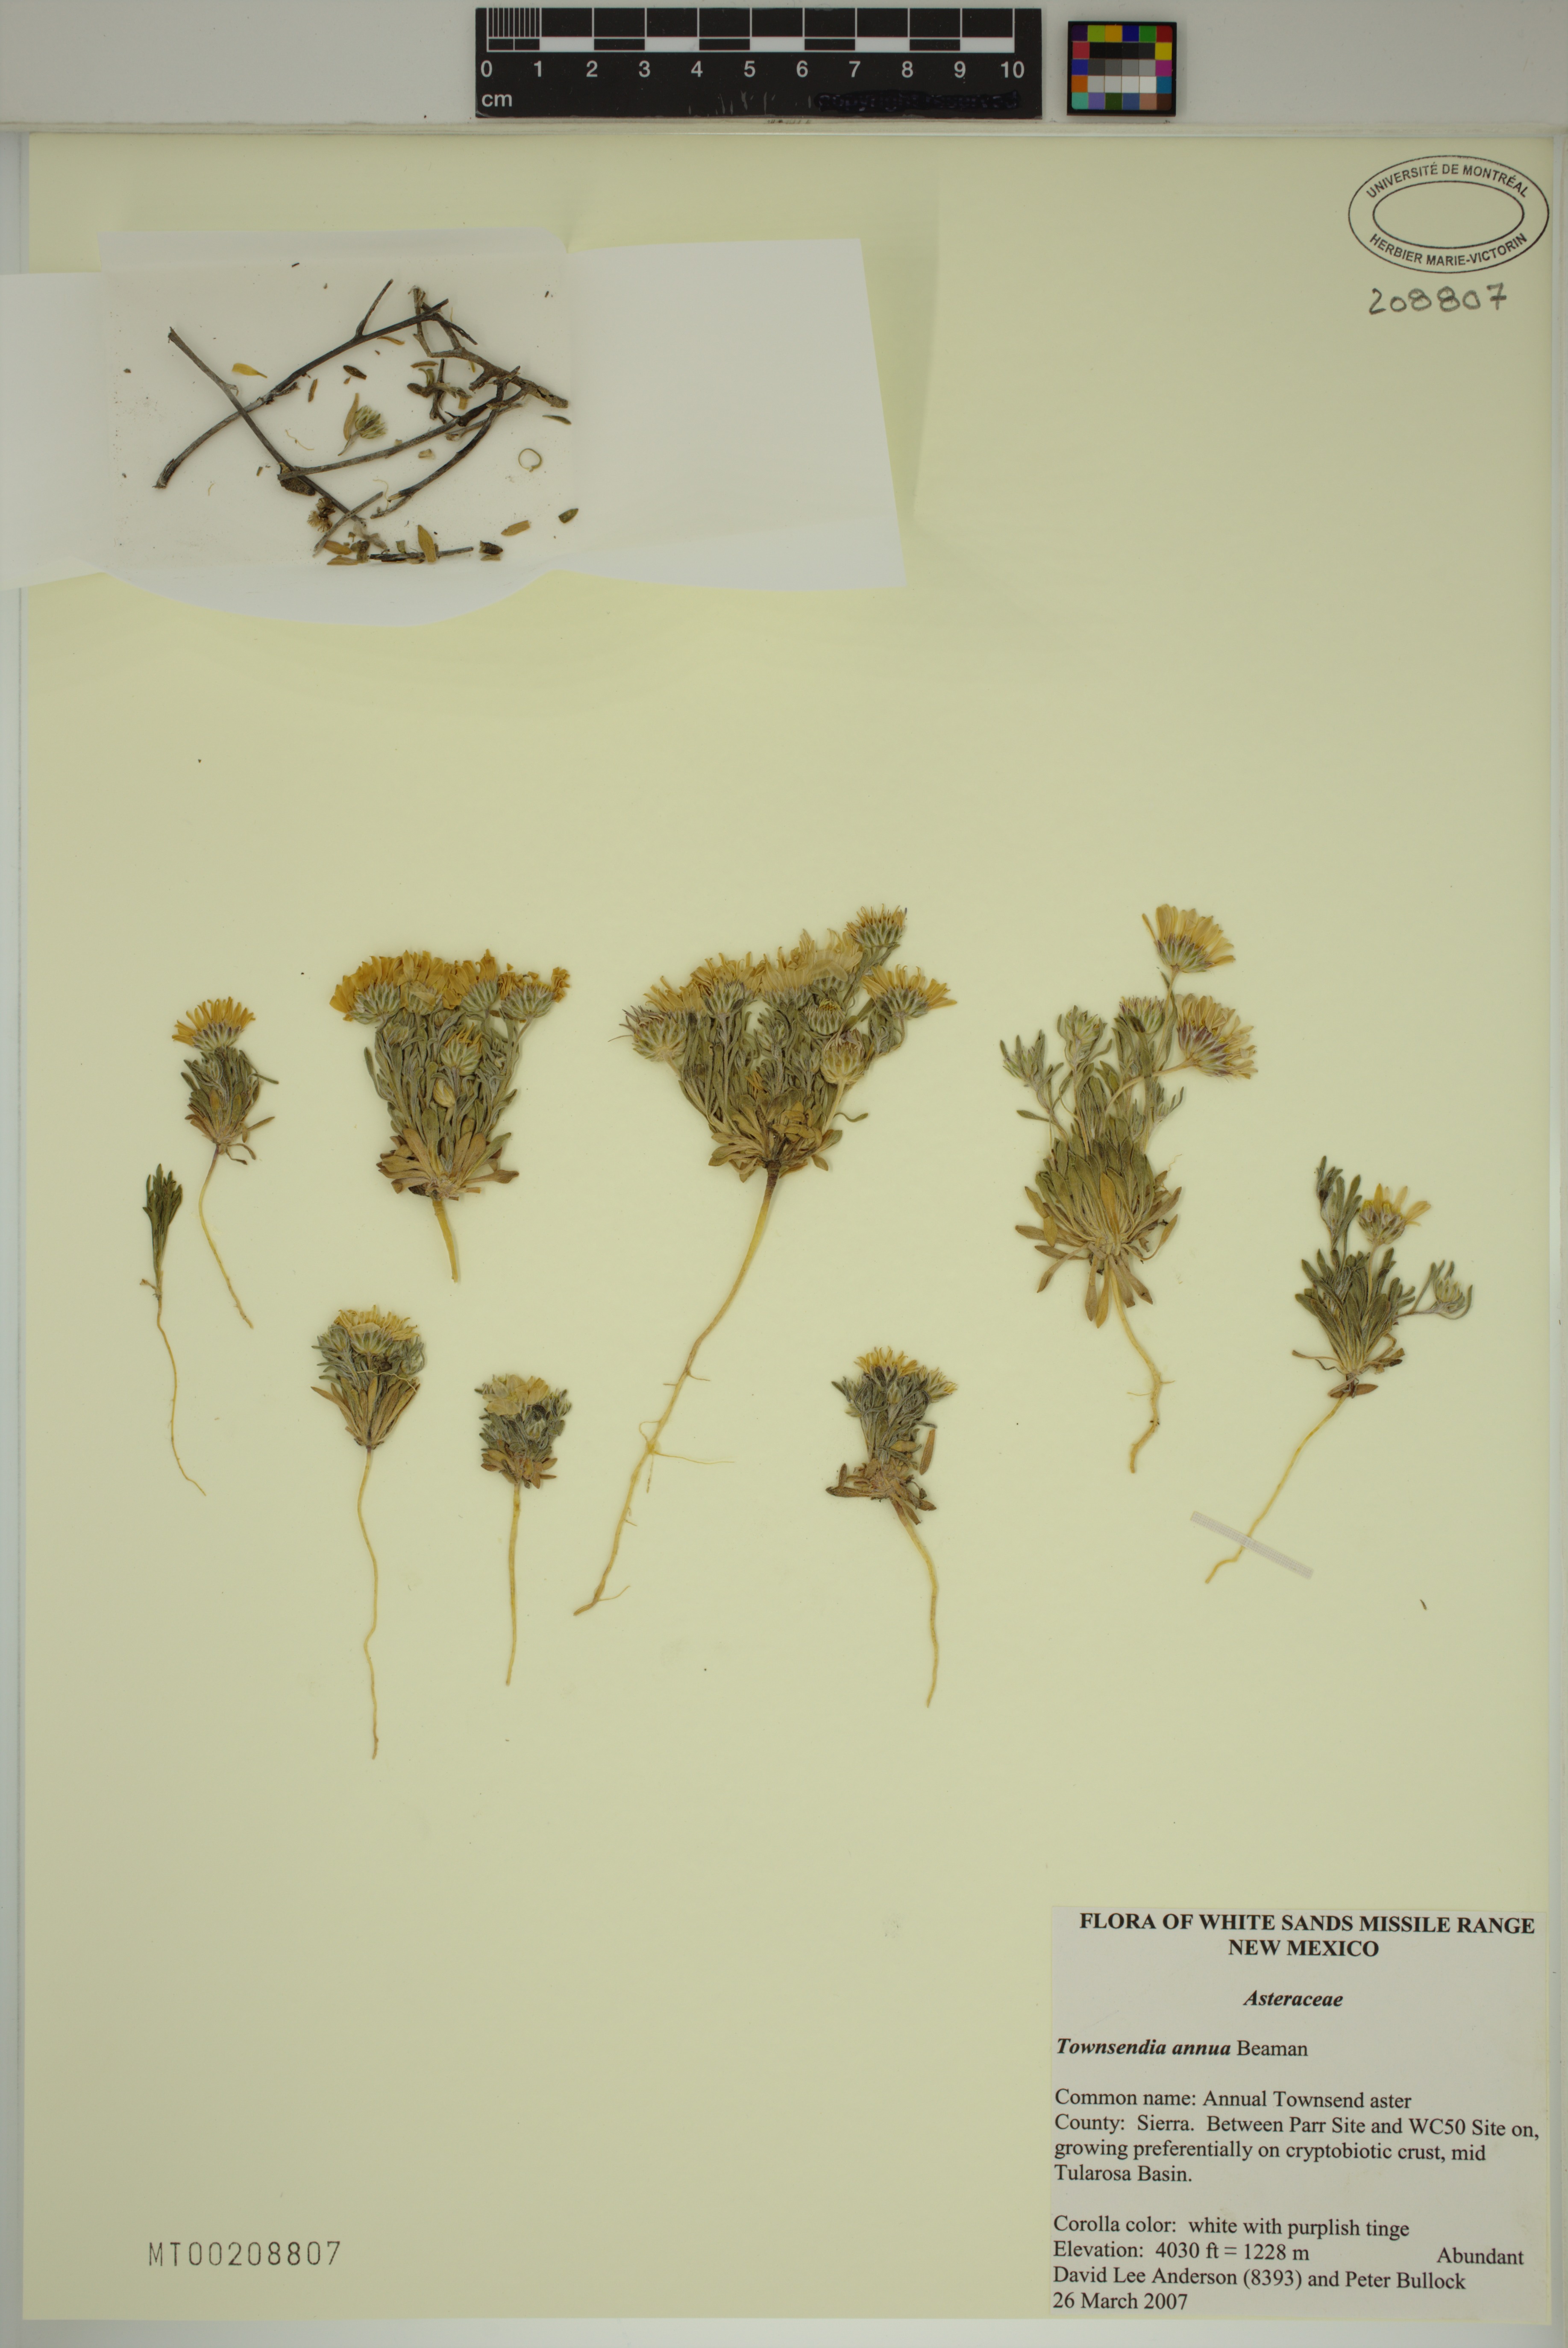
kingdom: Plantae
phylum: Tracheophyta
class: Magnoliopsida
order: Asterales
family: Asteraceae
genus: Townsendia
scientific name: Townsendia annua
